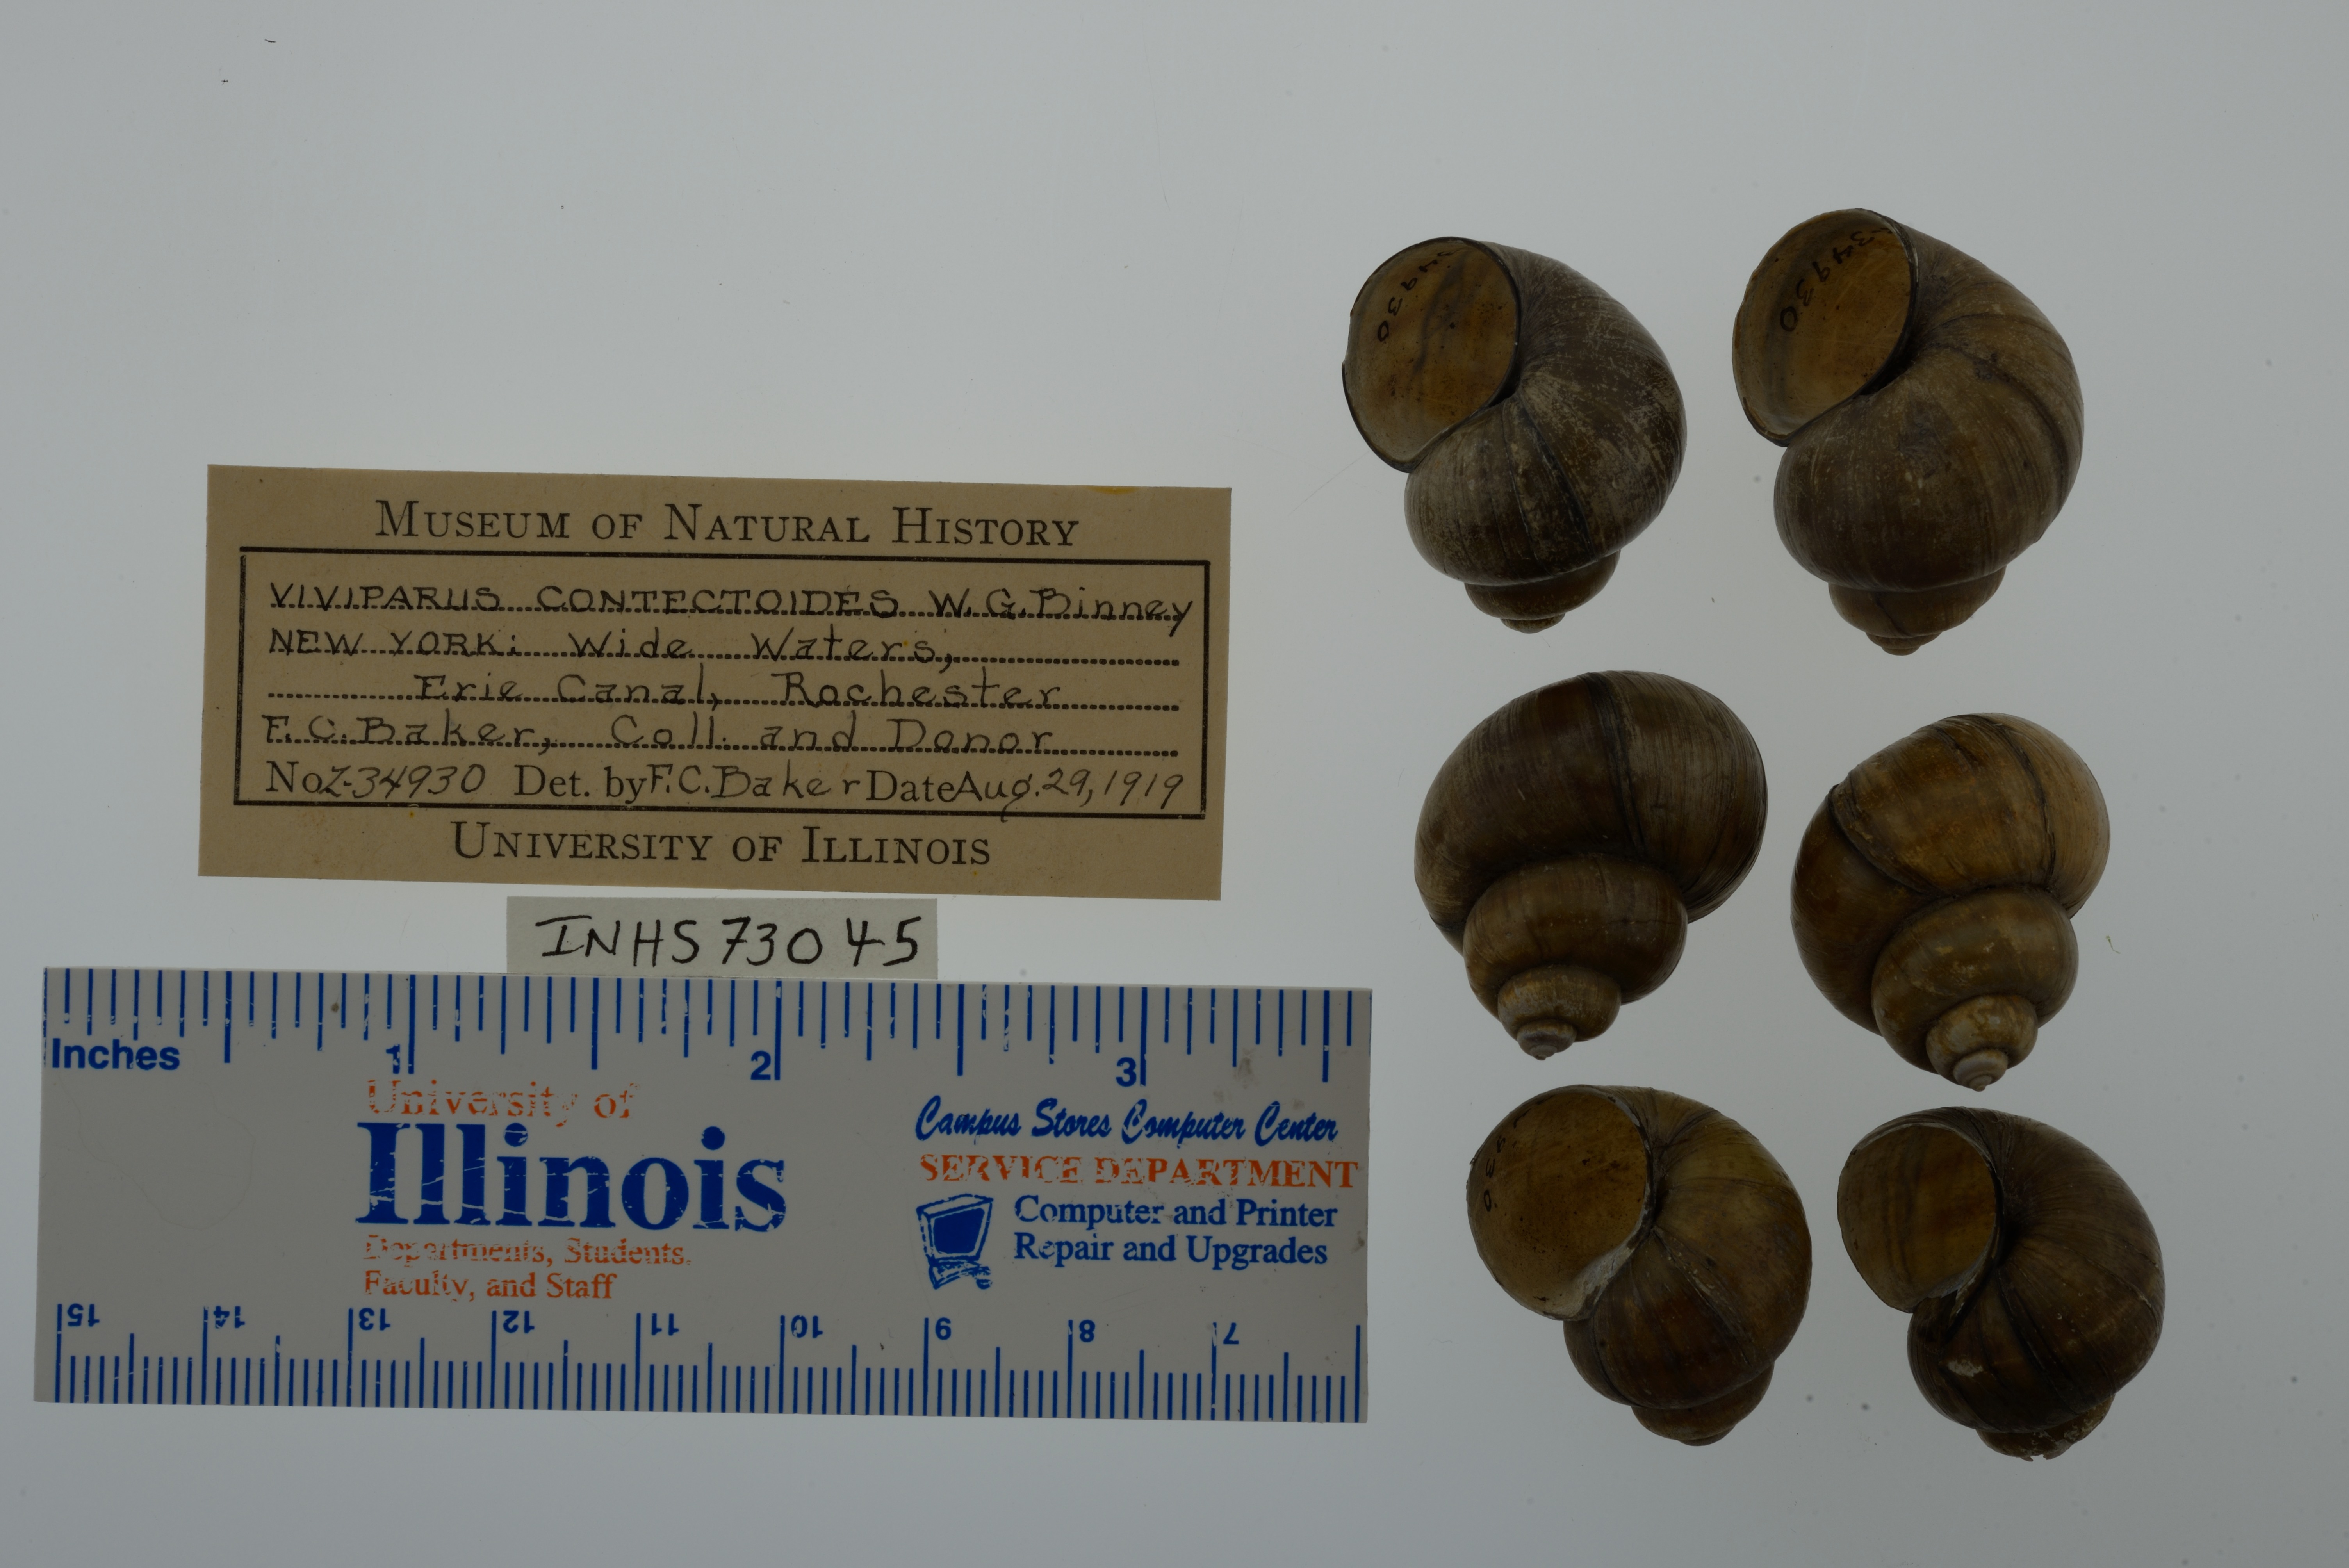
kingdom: Animalia
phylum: Mollusca
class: Gastropoda
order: Architaenioglossa
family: Viviparidae
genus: Callinina
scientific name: Callinina georgiana
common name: Banded mystery snail
